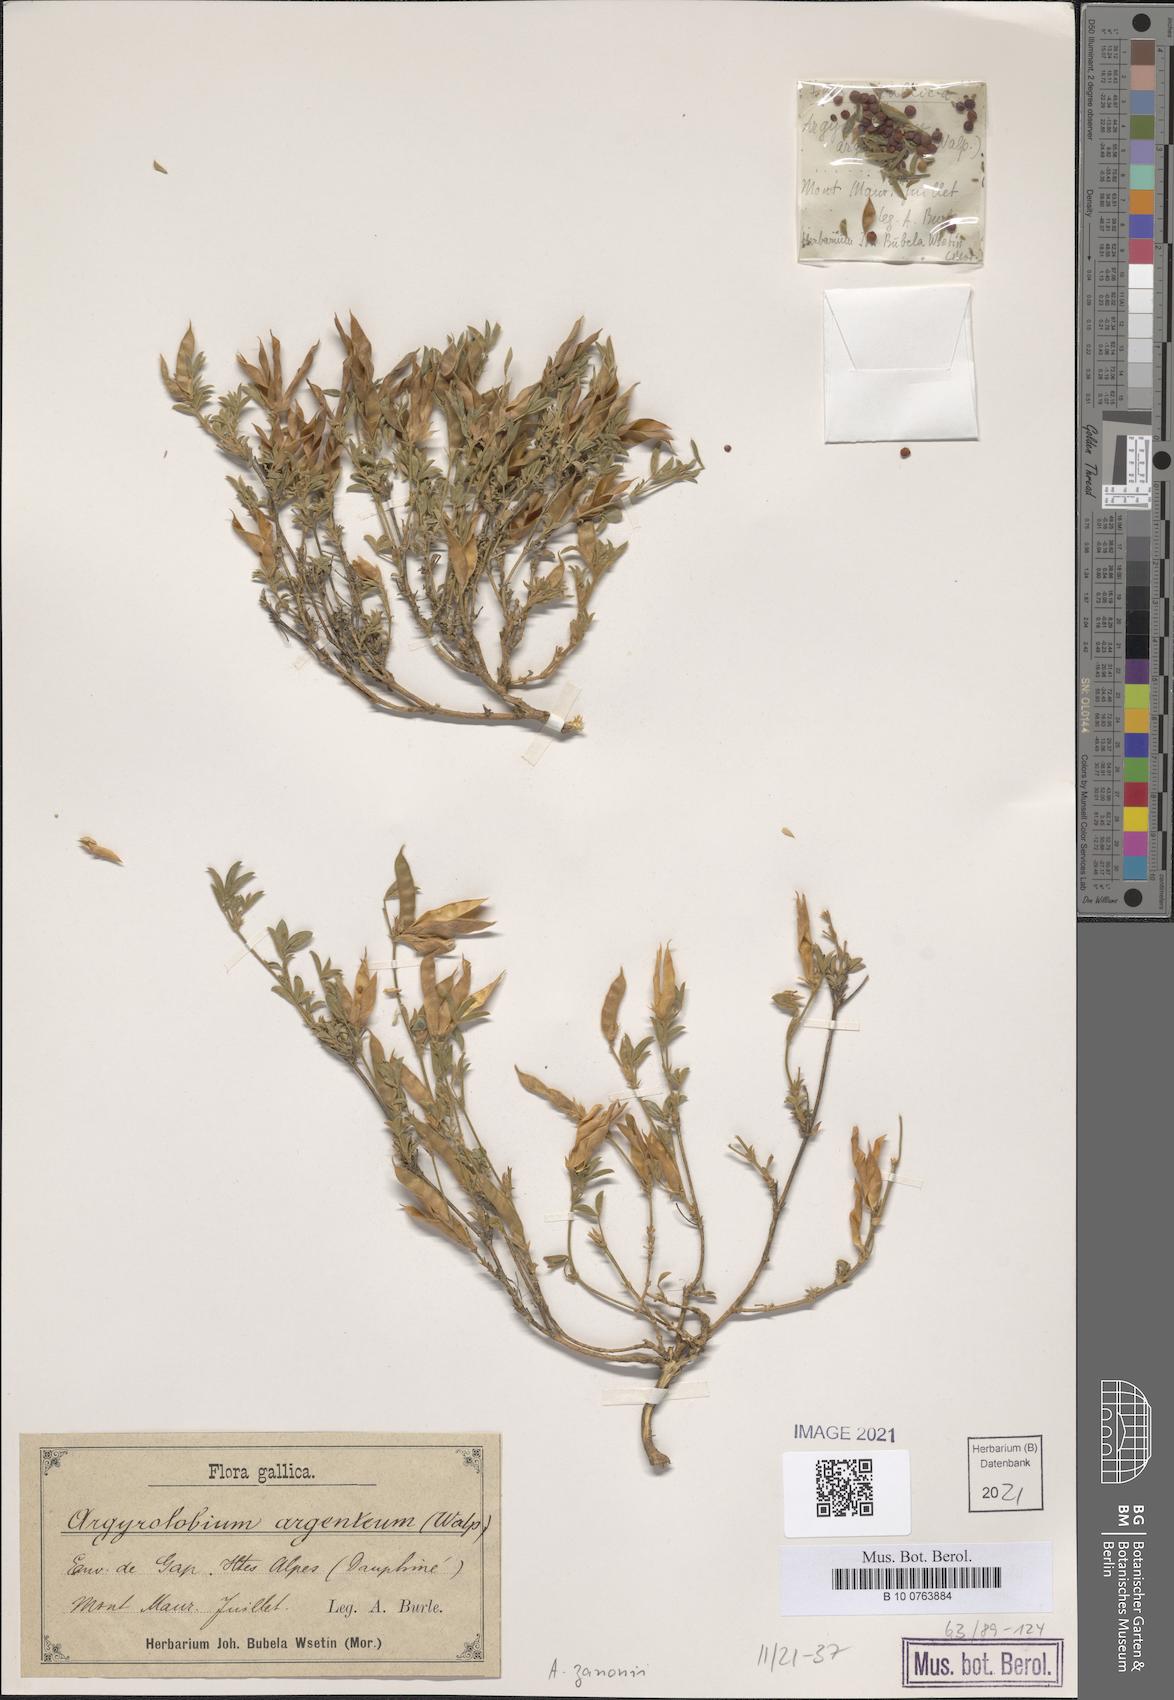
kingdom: Plantae
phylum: Tracheophyta
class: Magnoliopsida
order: Fabales
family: Fabaceae
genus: Argyrolobium
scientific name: Argyrolobium zanonii
